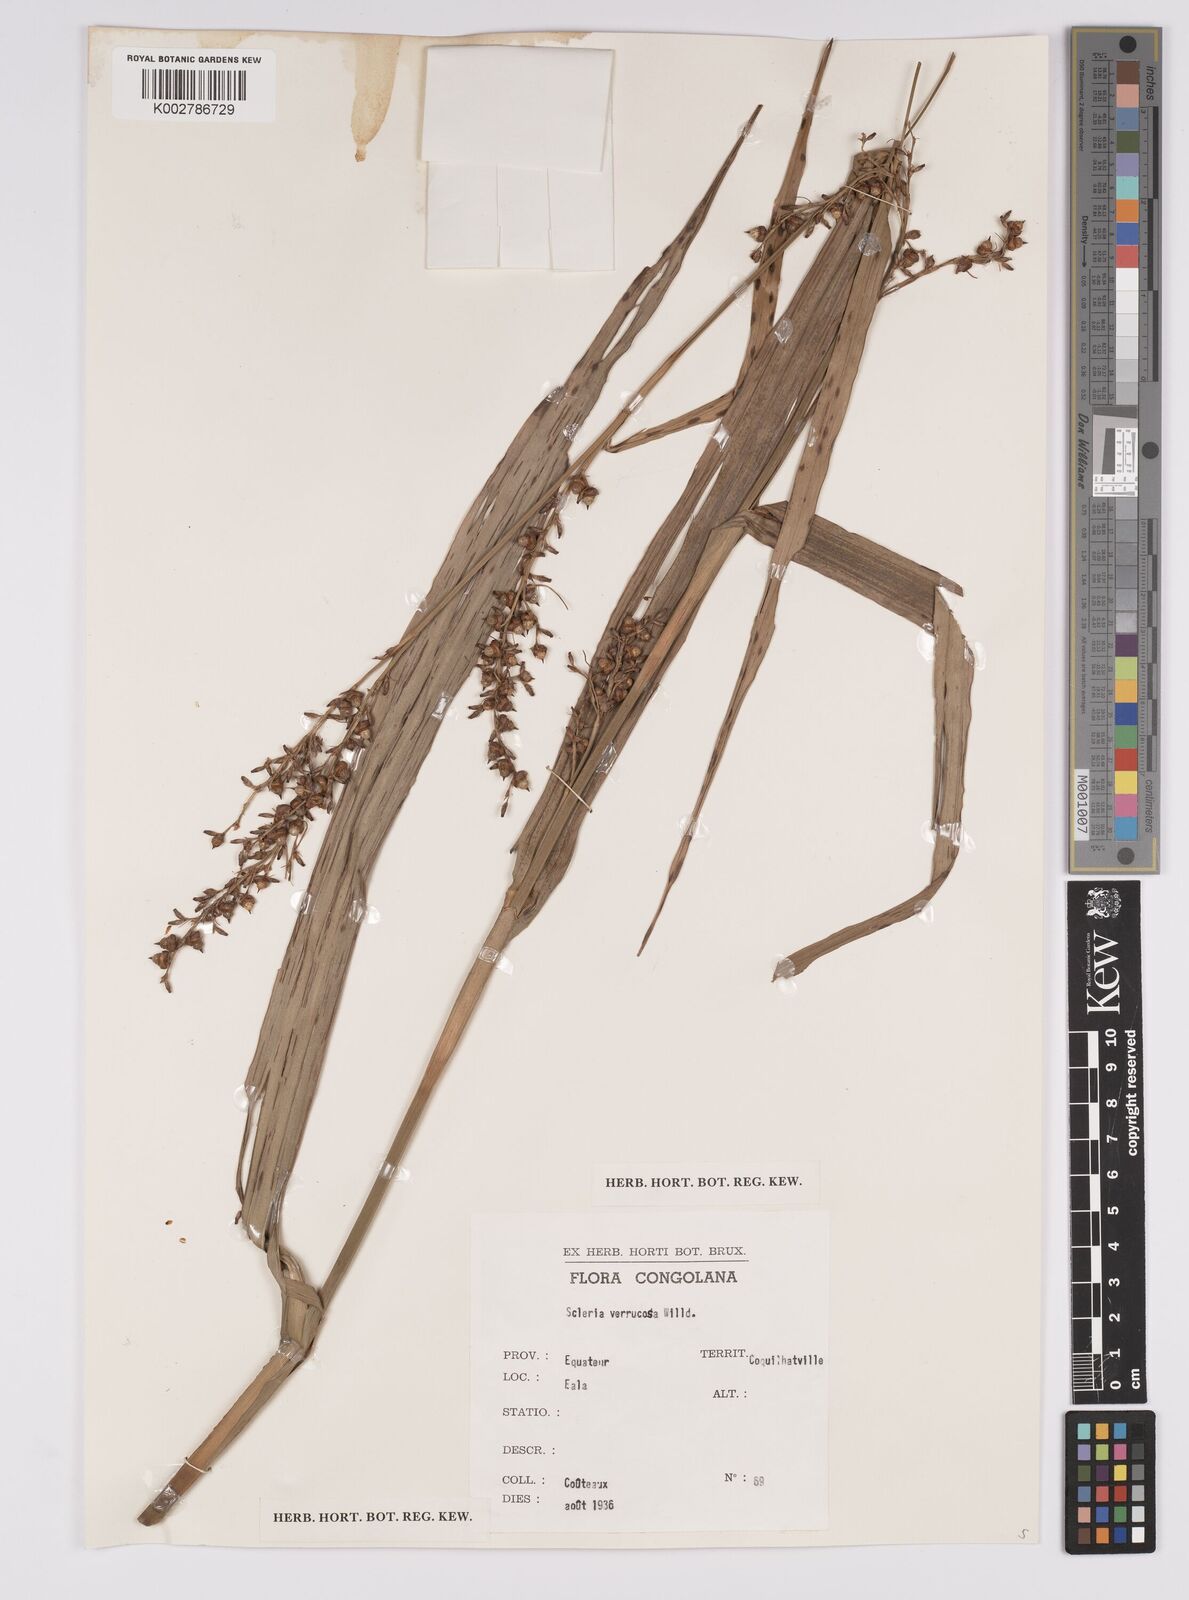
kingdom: Plantae
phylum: Tracheophyta
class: Liliopsida
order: Poales
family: Cyperaceae
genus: Scleria
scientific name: Scleria verrucosa
